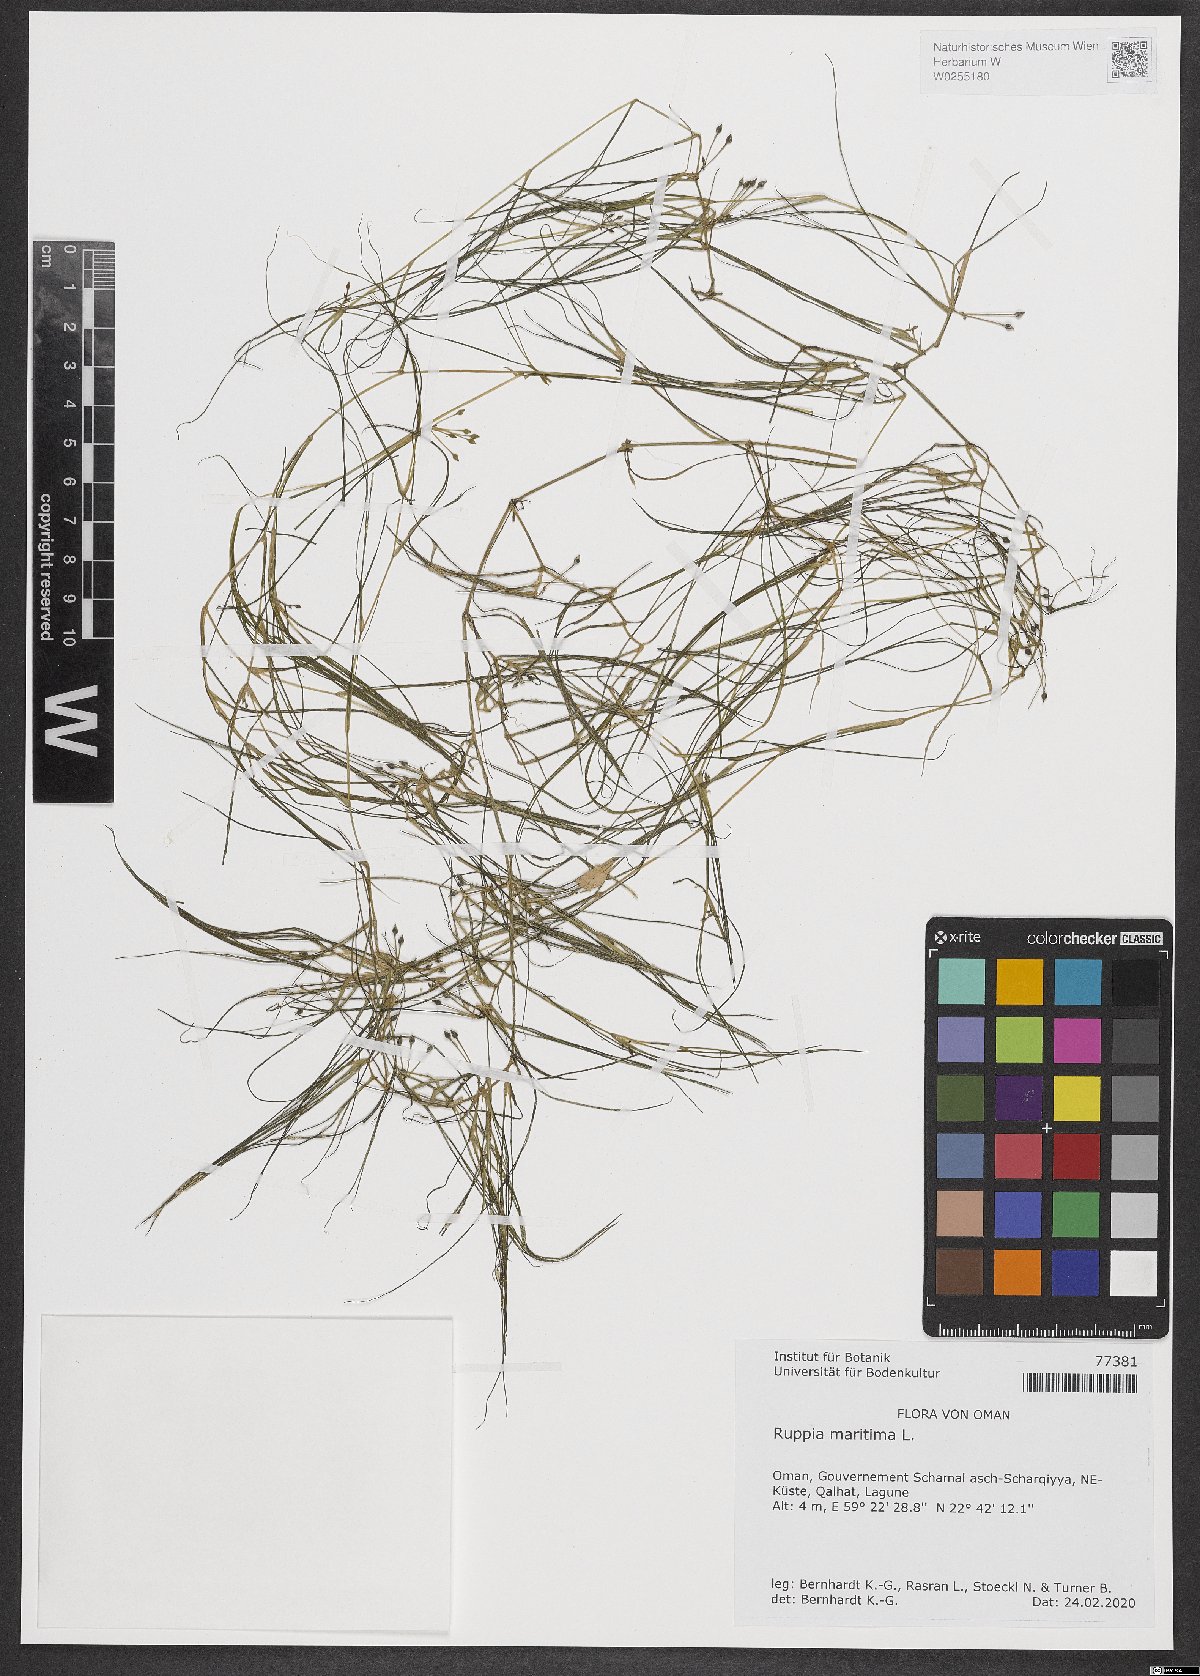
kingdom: Plantae
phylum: Tracheophyta
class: Liliopsida
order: Alismatales
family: Ruppiaceae
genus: Ruppia
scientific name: Ruppia maritima
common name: Beaked tasselweed
